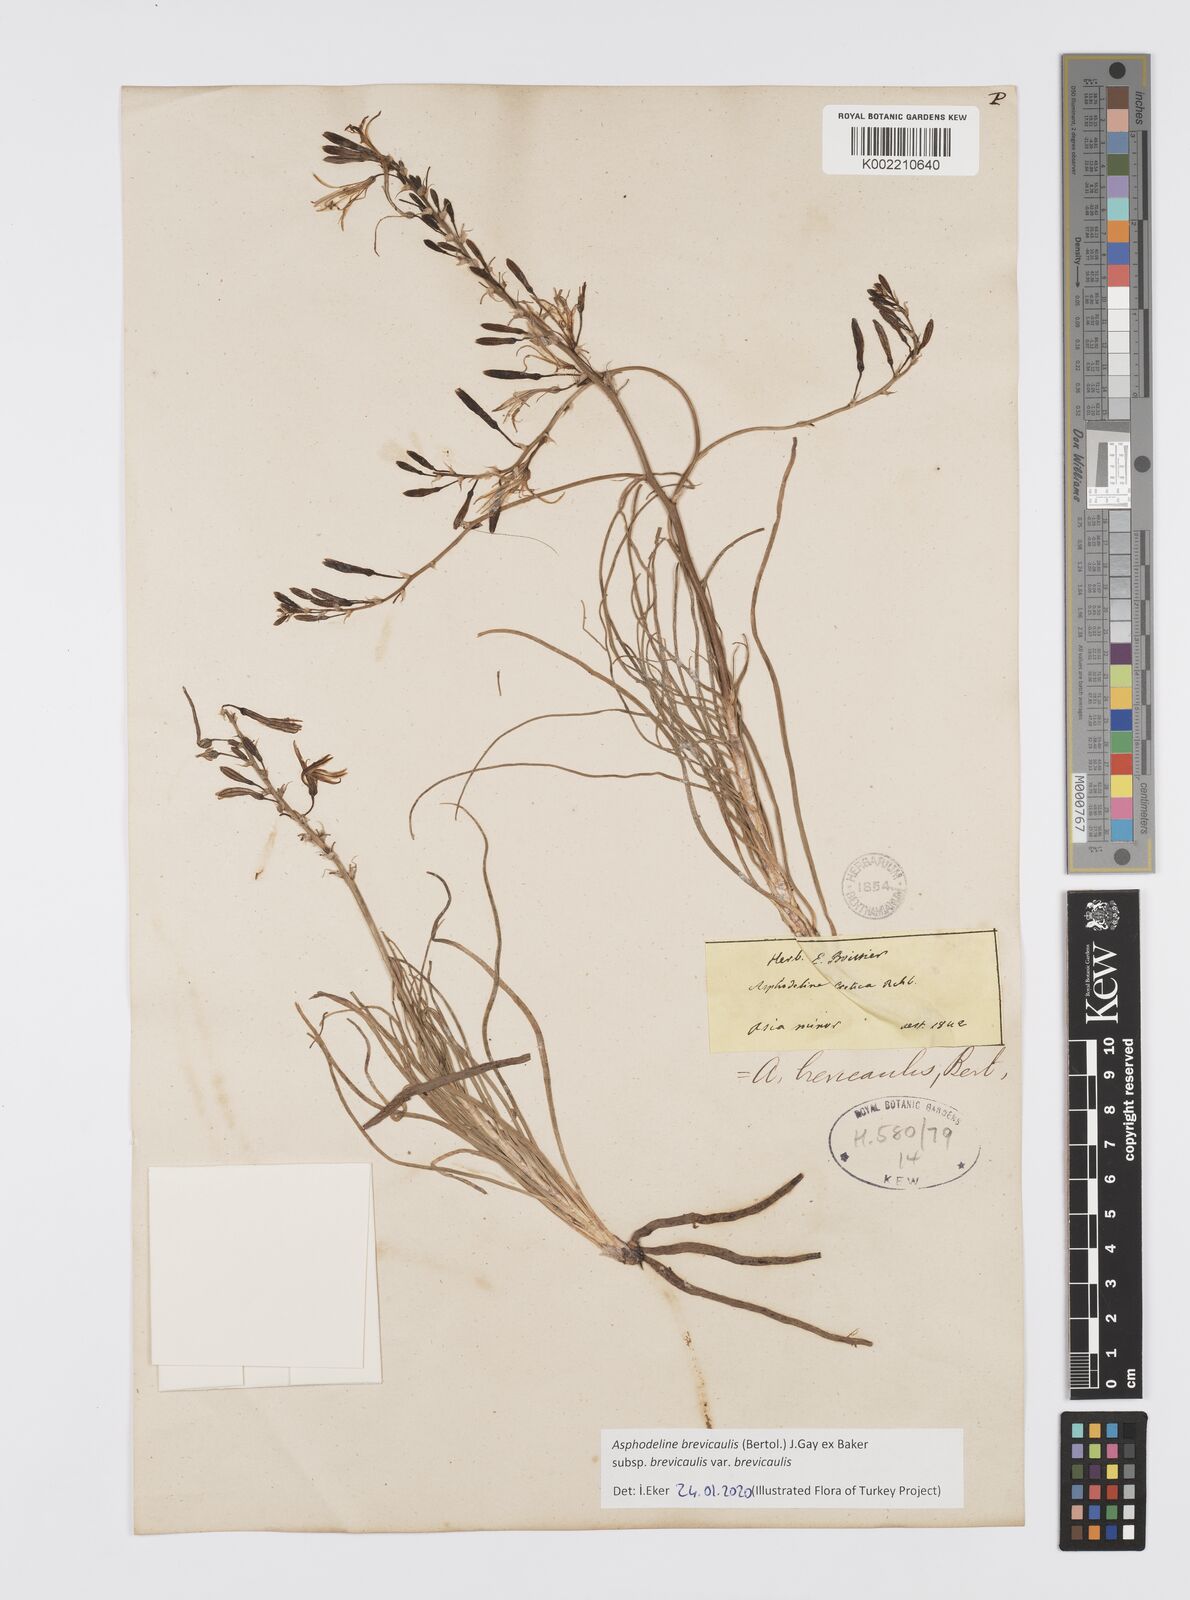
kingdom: Plantae
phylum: Tracheophyta
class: Liliopsida
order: Asparagales
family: Asphodelaceae
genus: Asphodeline
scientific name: Asphodeline brevicaulis
